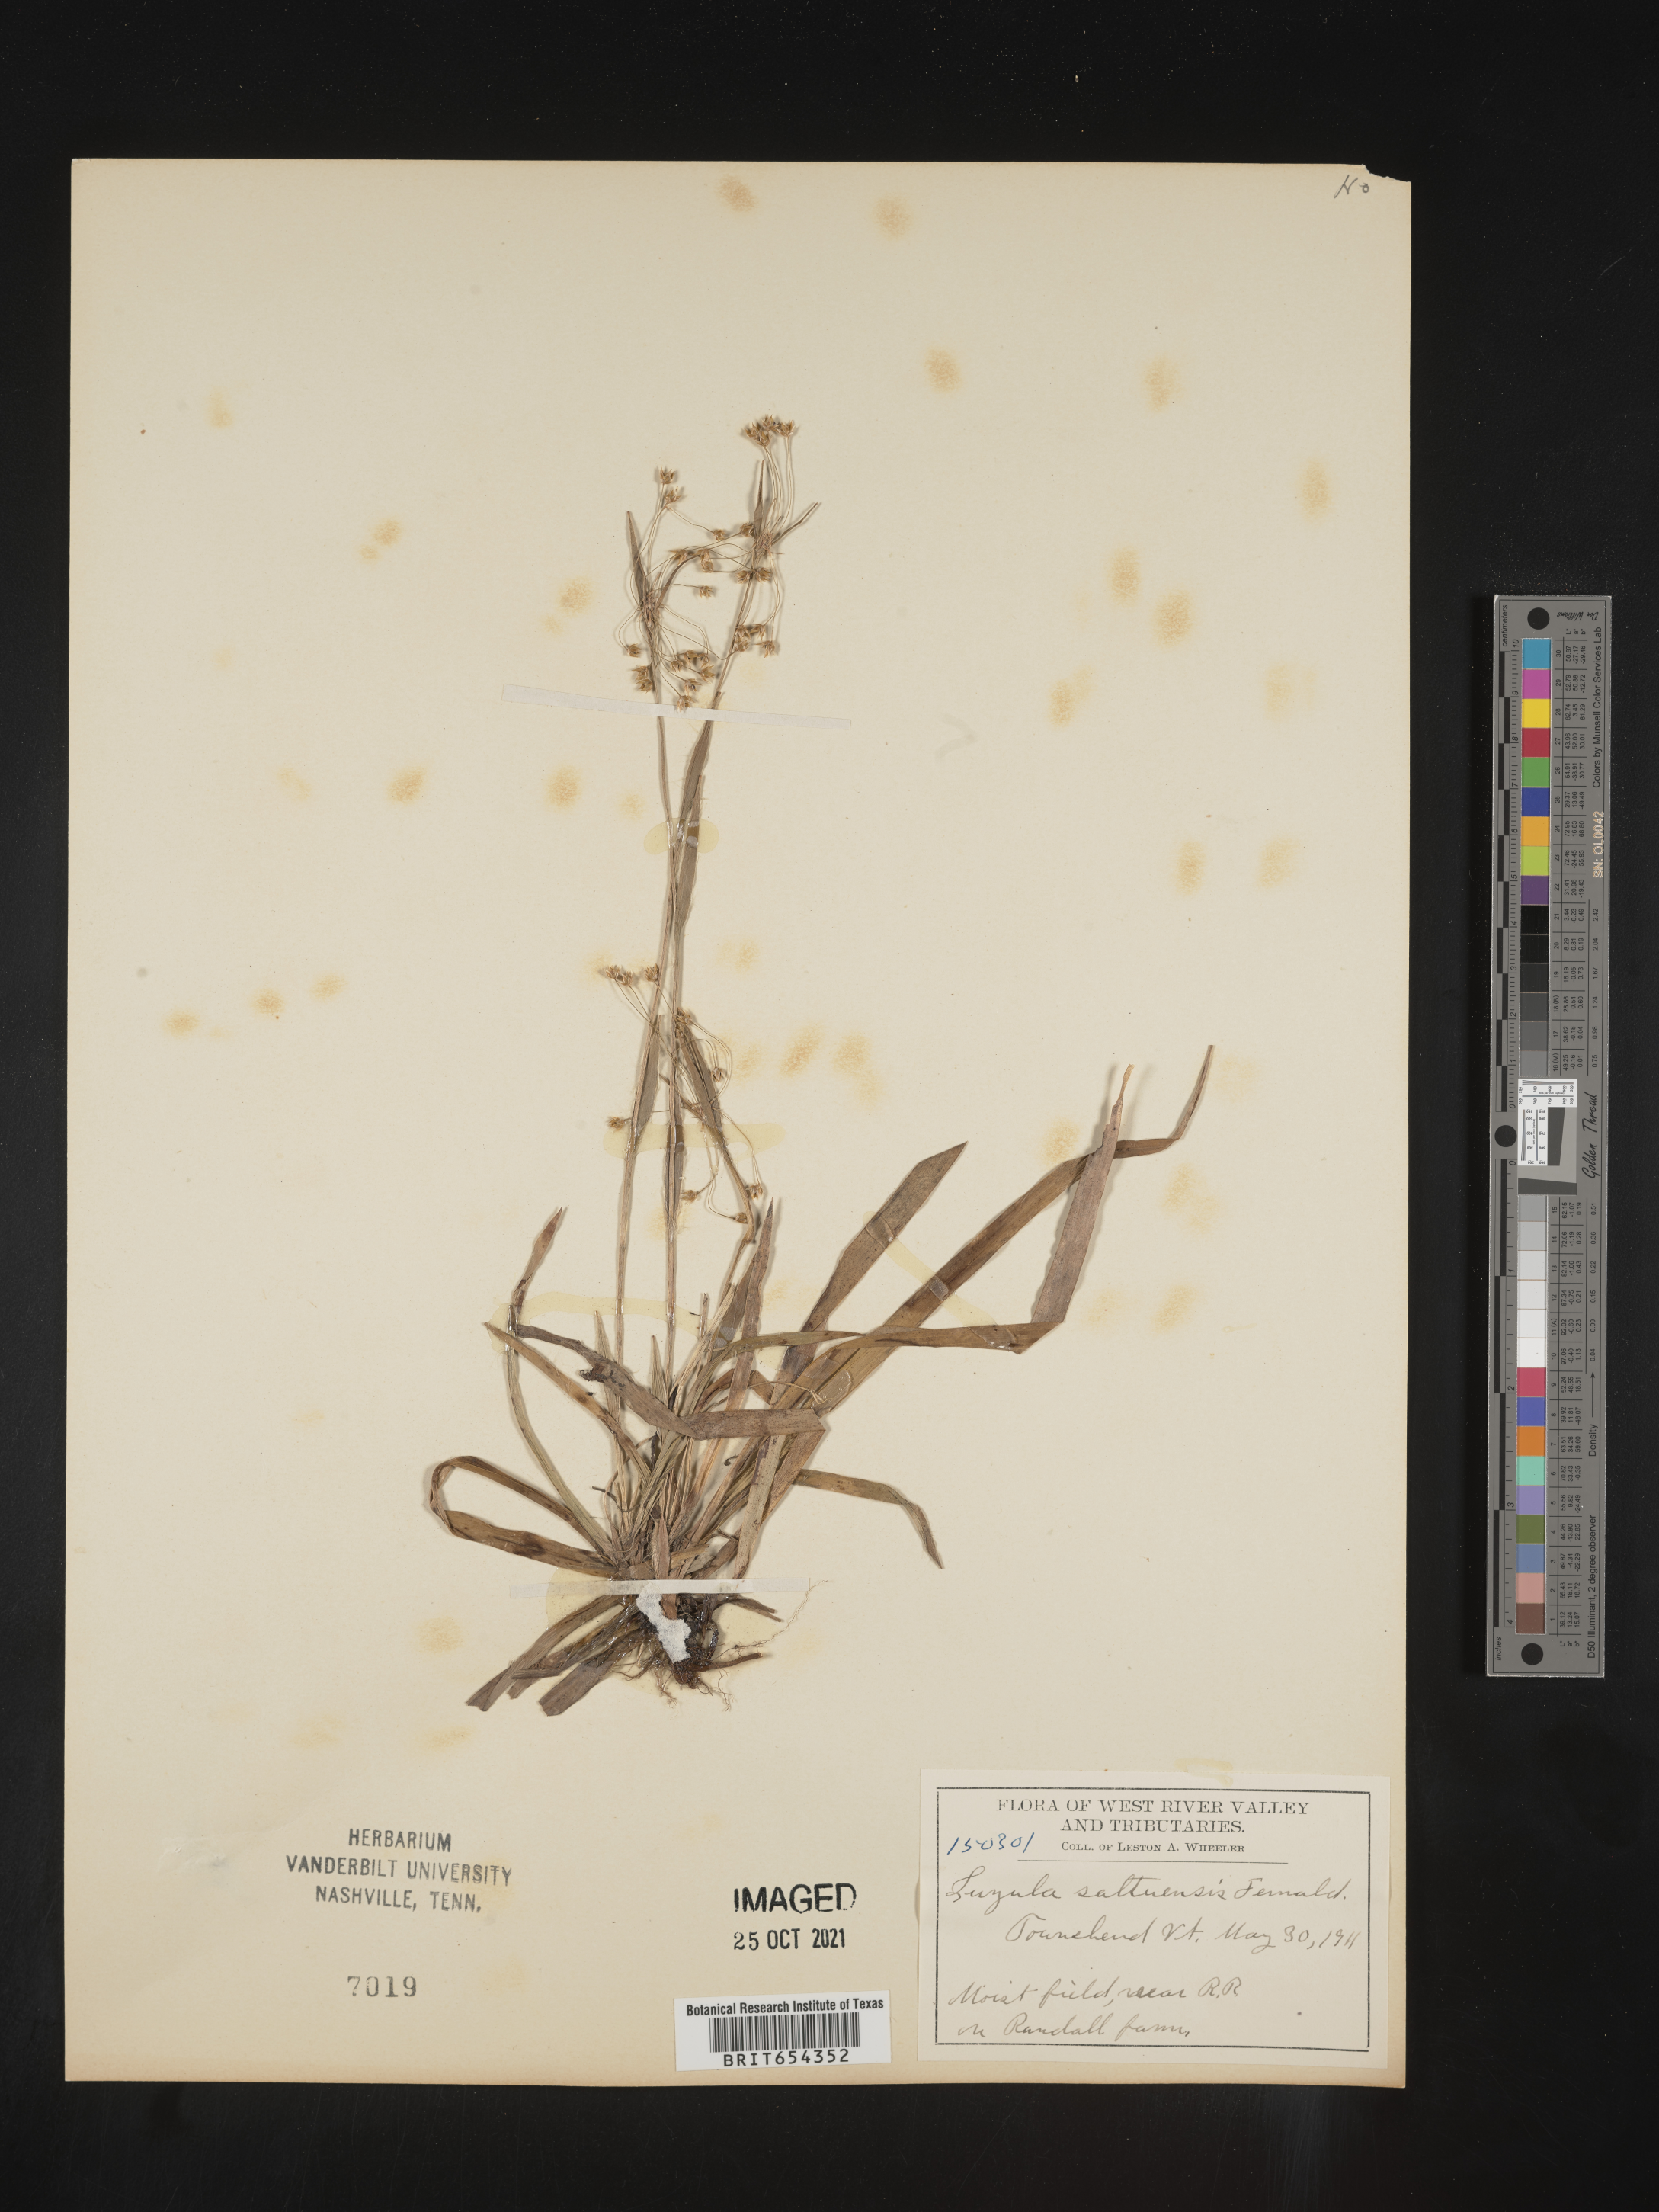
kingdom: Plantae
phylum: Tracheophyta
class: Liliopsida
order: Poales
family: Juncaceae
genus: Luzula
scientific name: Luzula
